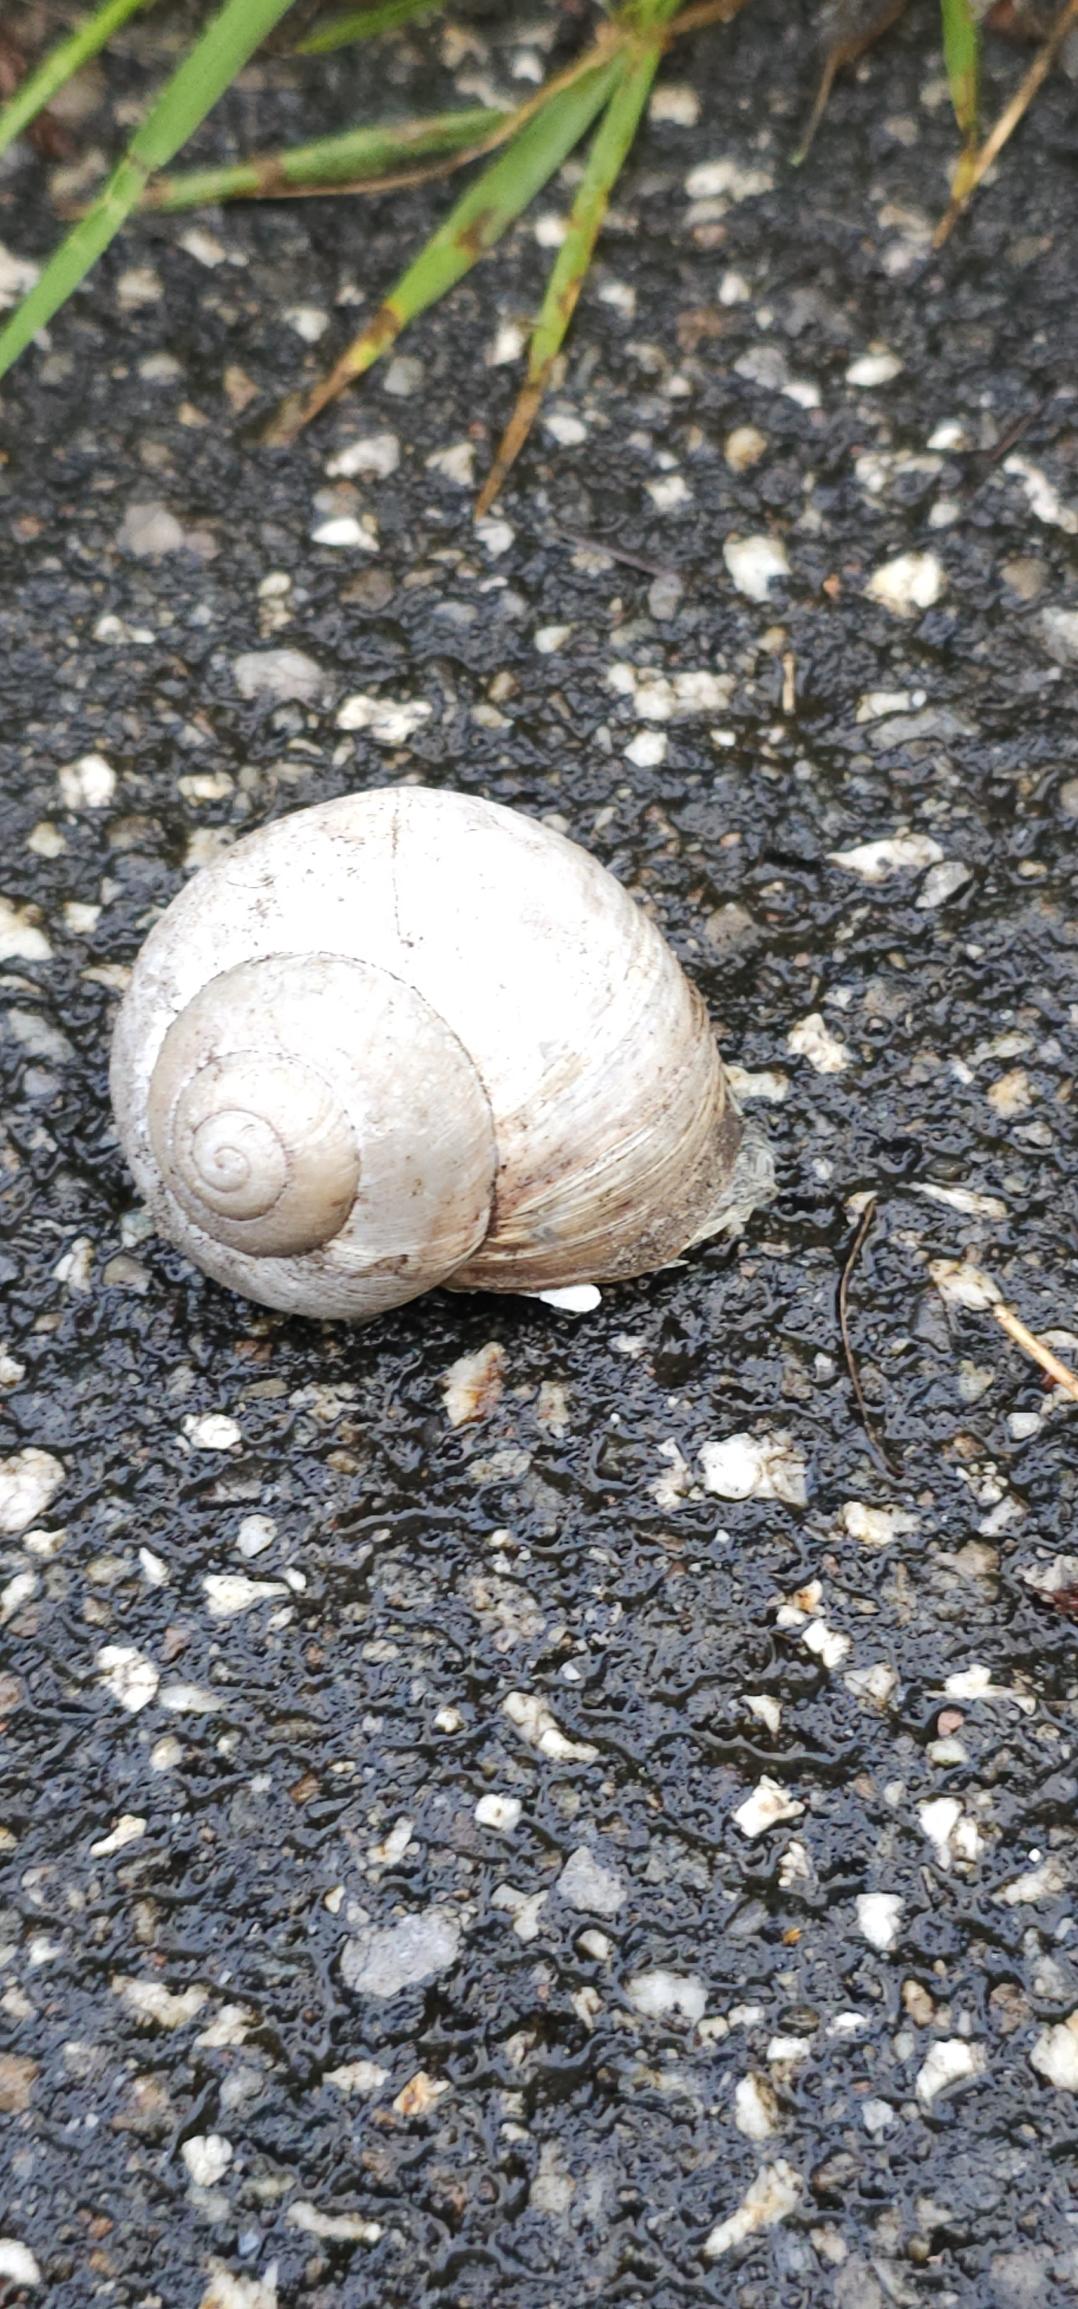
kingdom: Animalia
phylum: Mollusca
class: Gastropoda
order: Stylommatophora
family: Helicidae
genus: Helix
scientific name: Helix pomatia
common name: Vinbjergsnegl
